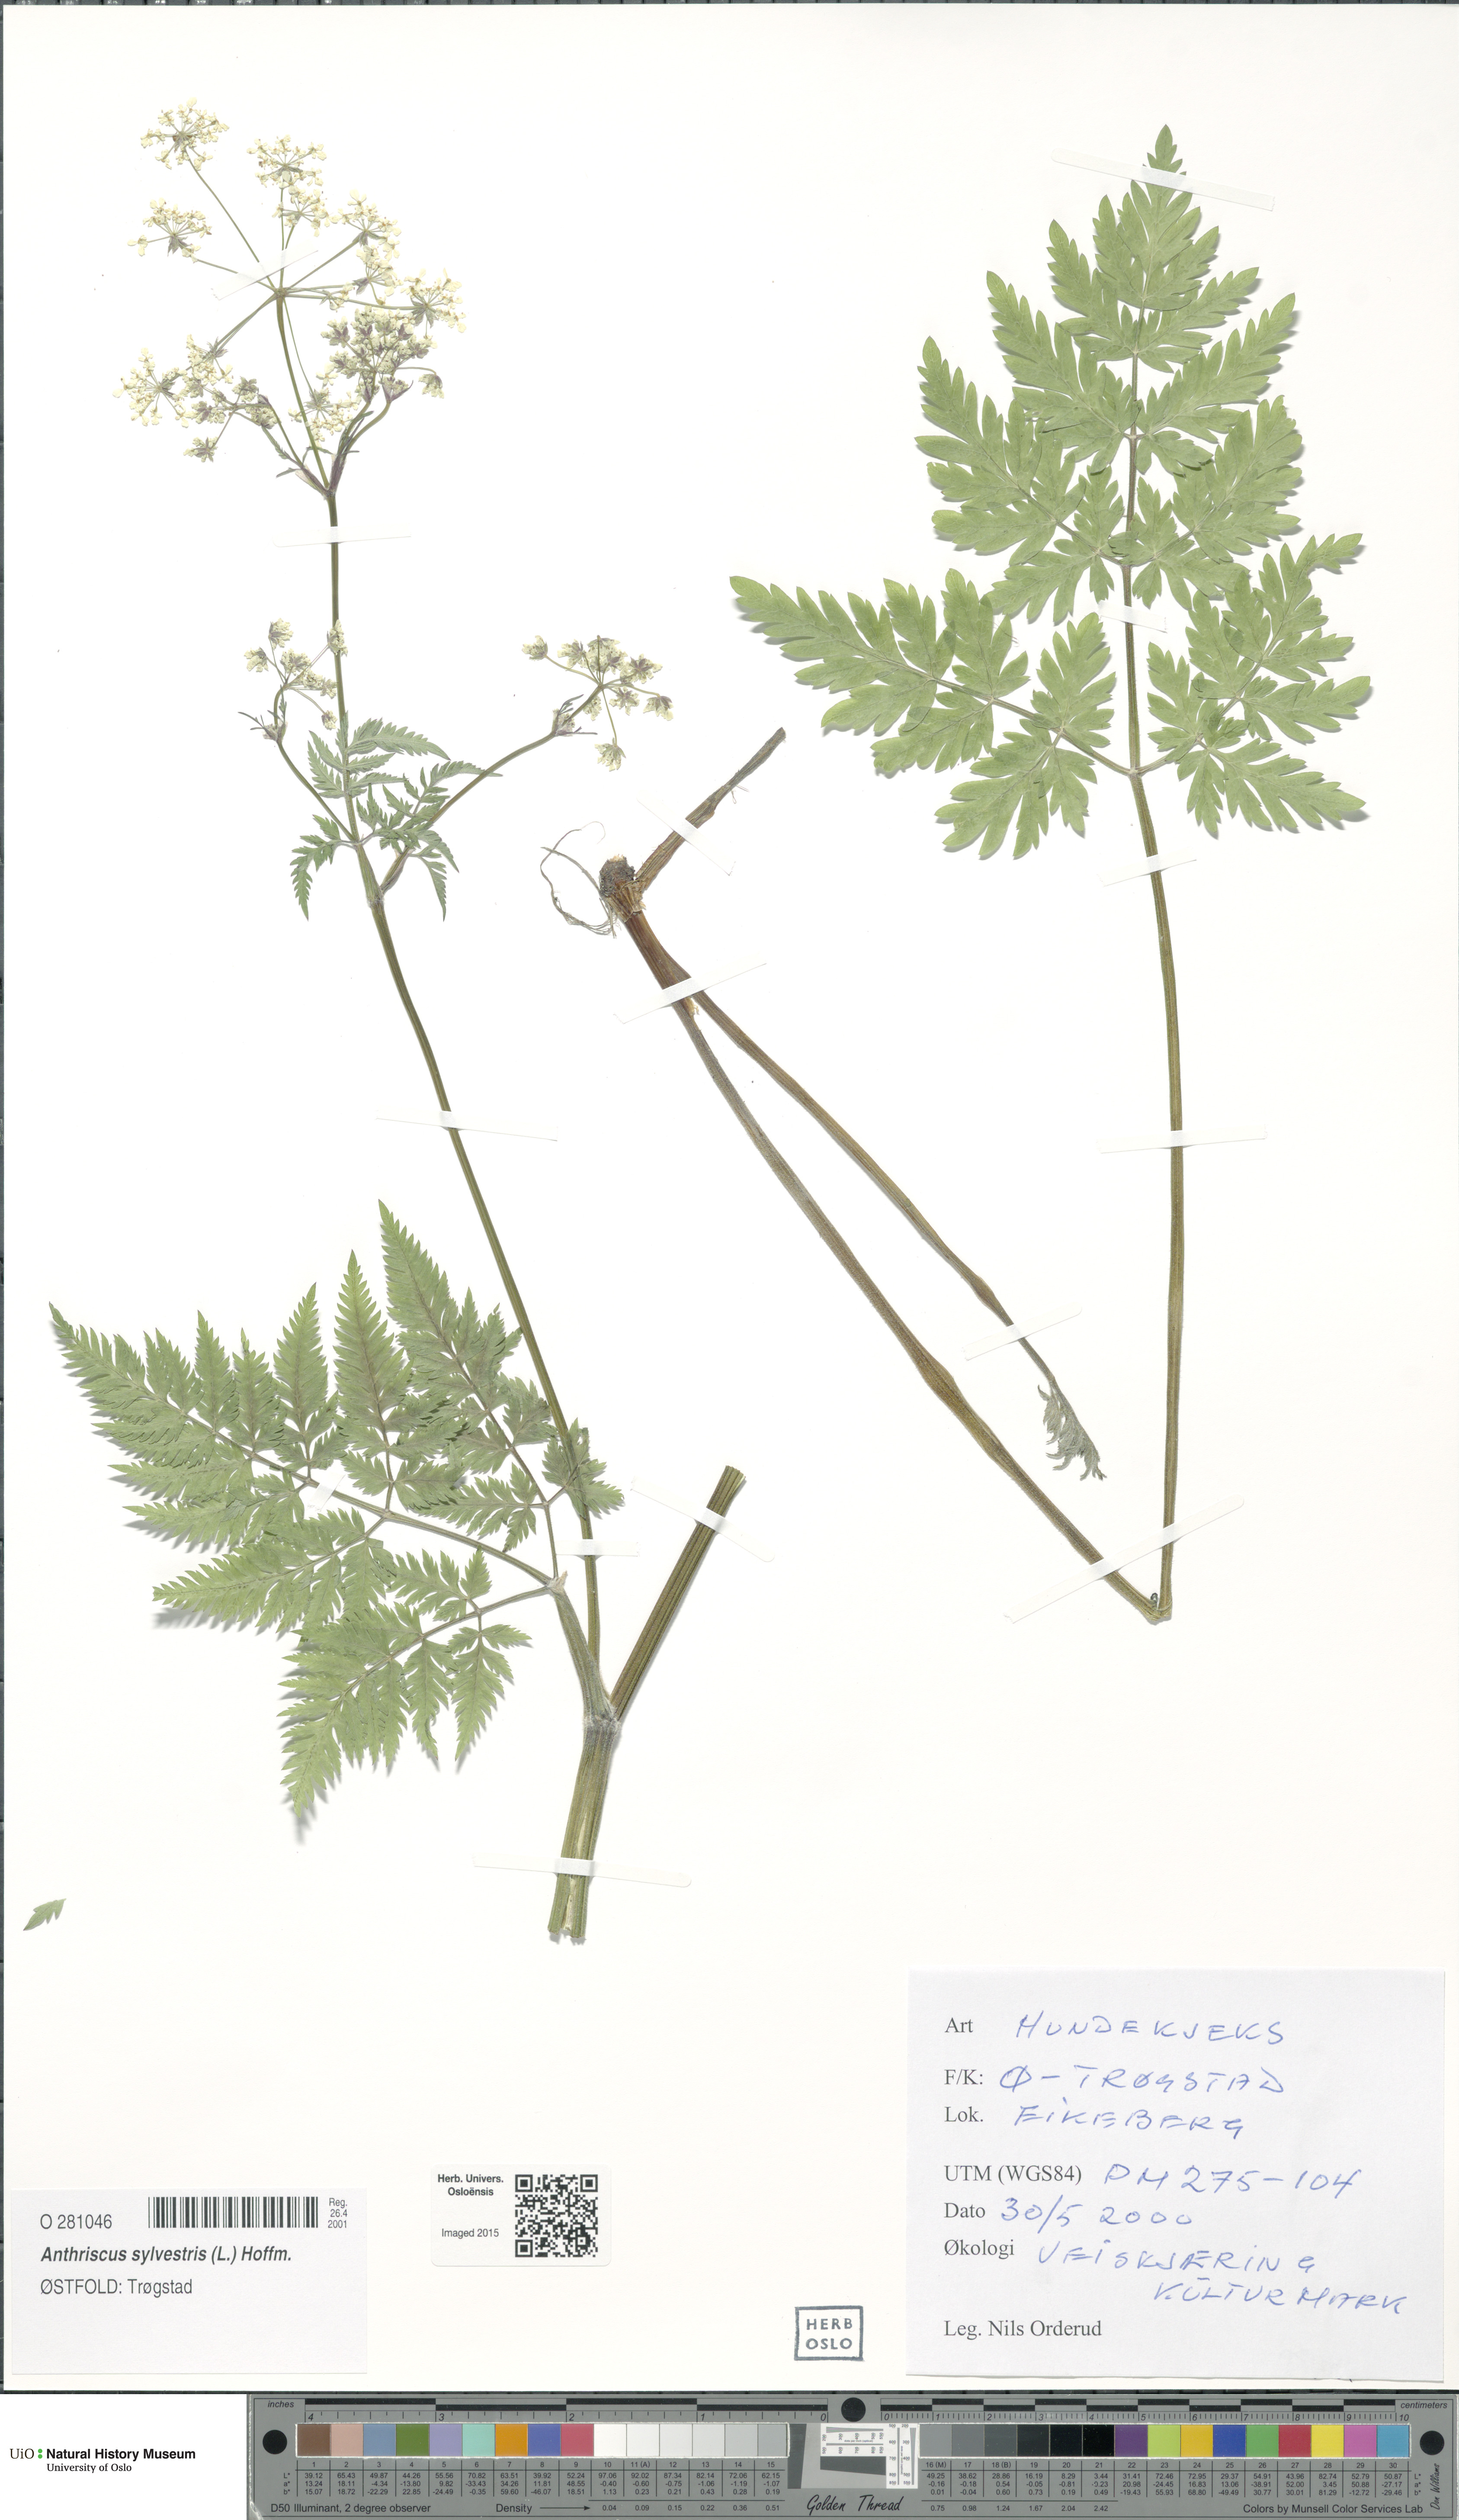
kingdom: Plantae
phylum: Tracheophyta
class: Magnoliopsida
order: Apiales
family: Apiaceae
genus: Anthriscus
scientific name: Anthriscus sylvestris
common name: Cow parsley
